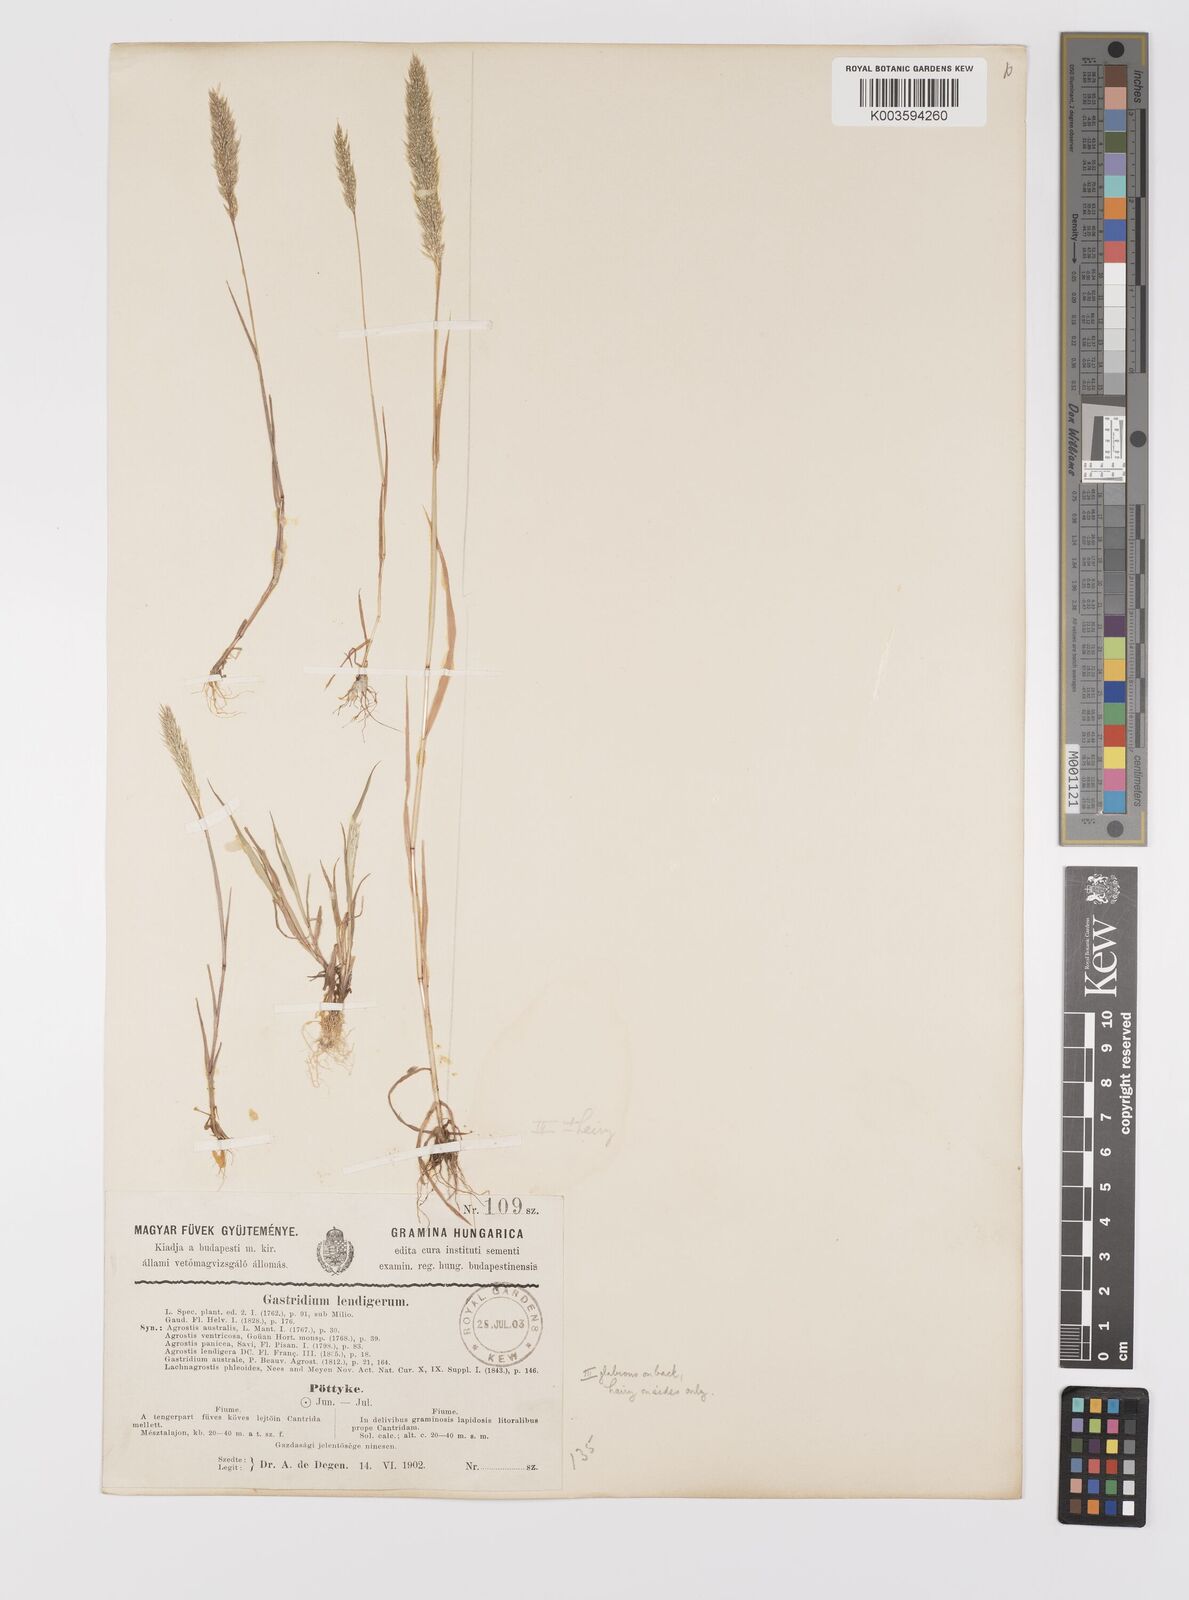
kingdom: Plantae
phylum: Tracheophyta
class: Liliopsida
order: Poales
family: Poaceae
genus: Gastridium
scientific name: Gastridium ventricosum
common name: Nit-grass
